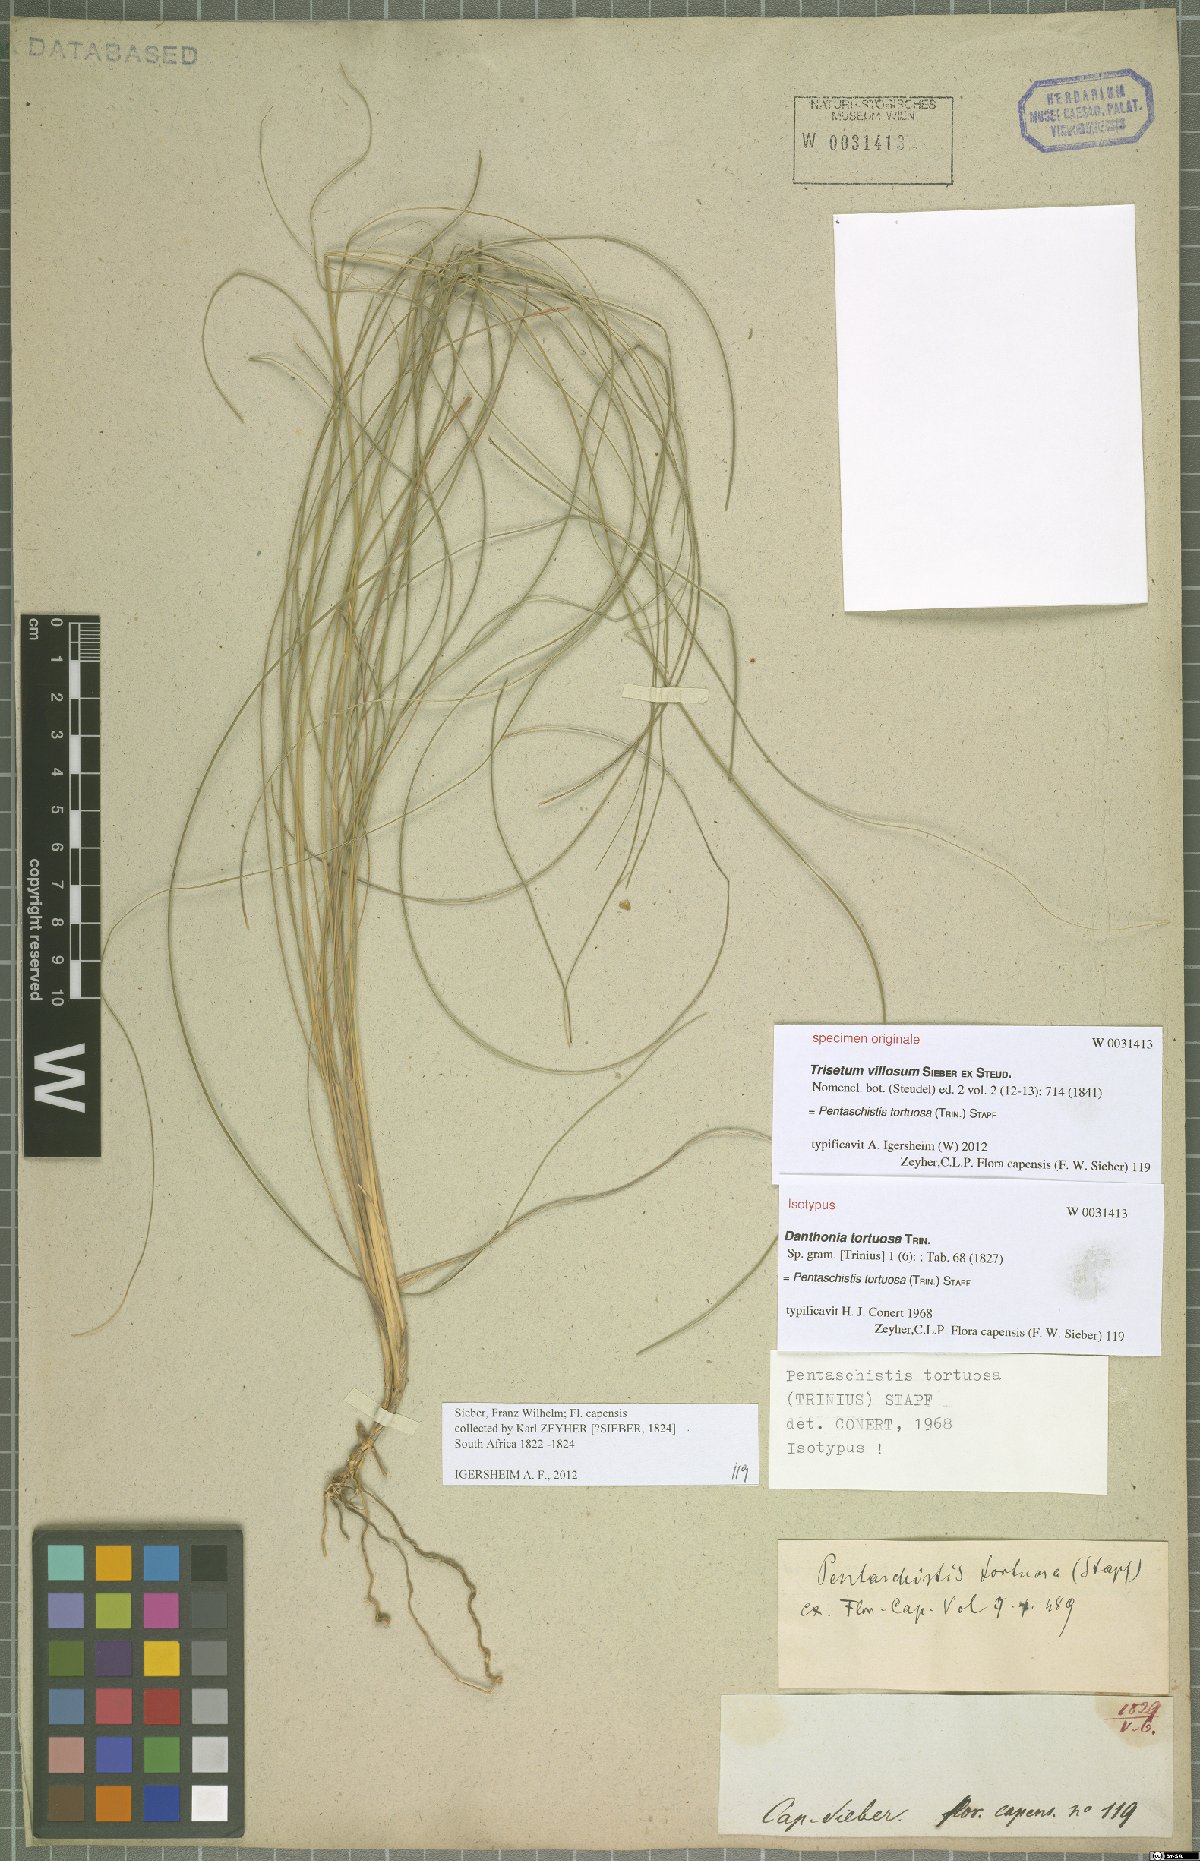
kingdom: Plantae
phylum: Tracheophyta
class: Liliopsida
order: Poales
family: Poaceae
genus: Pentameris
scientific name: Pentameris tortuosa
